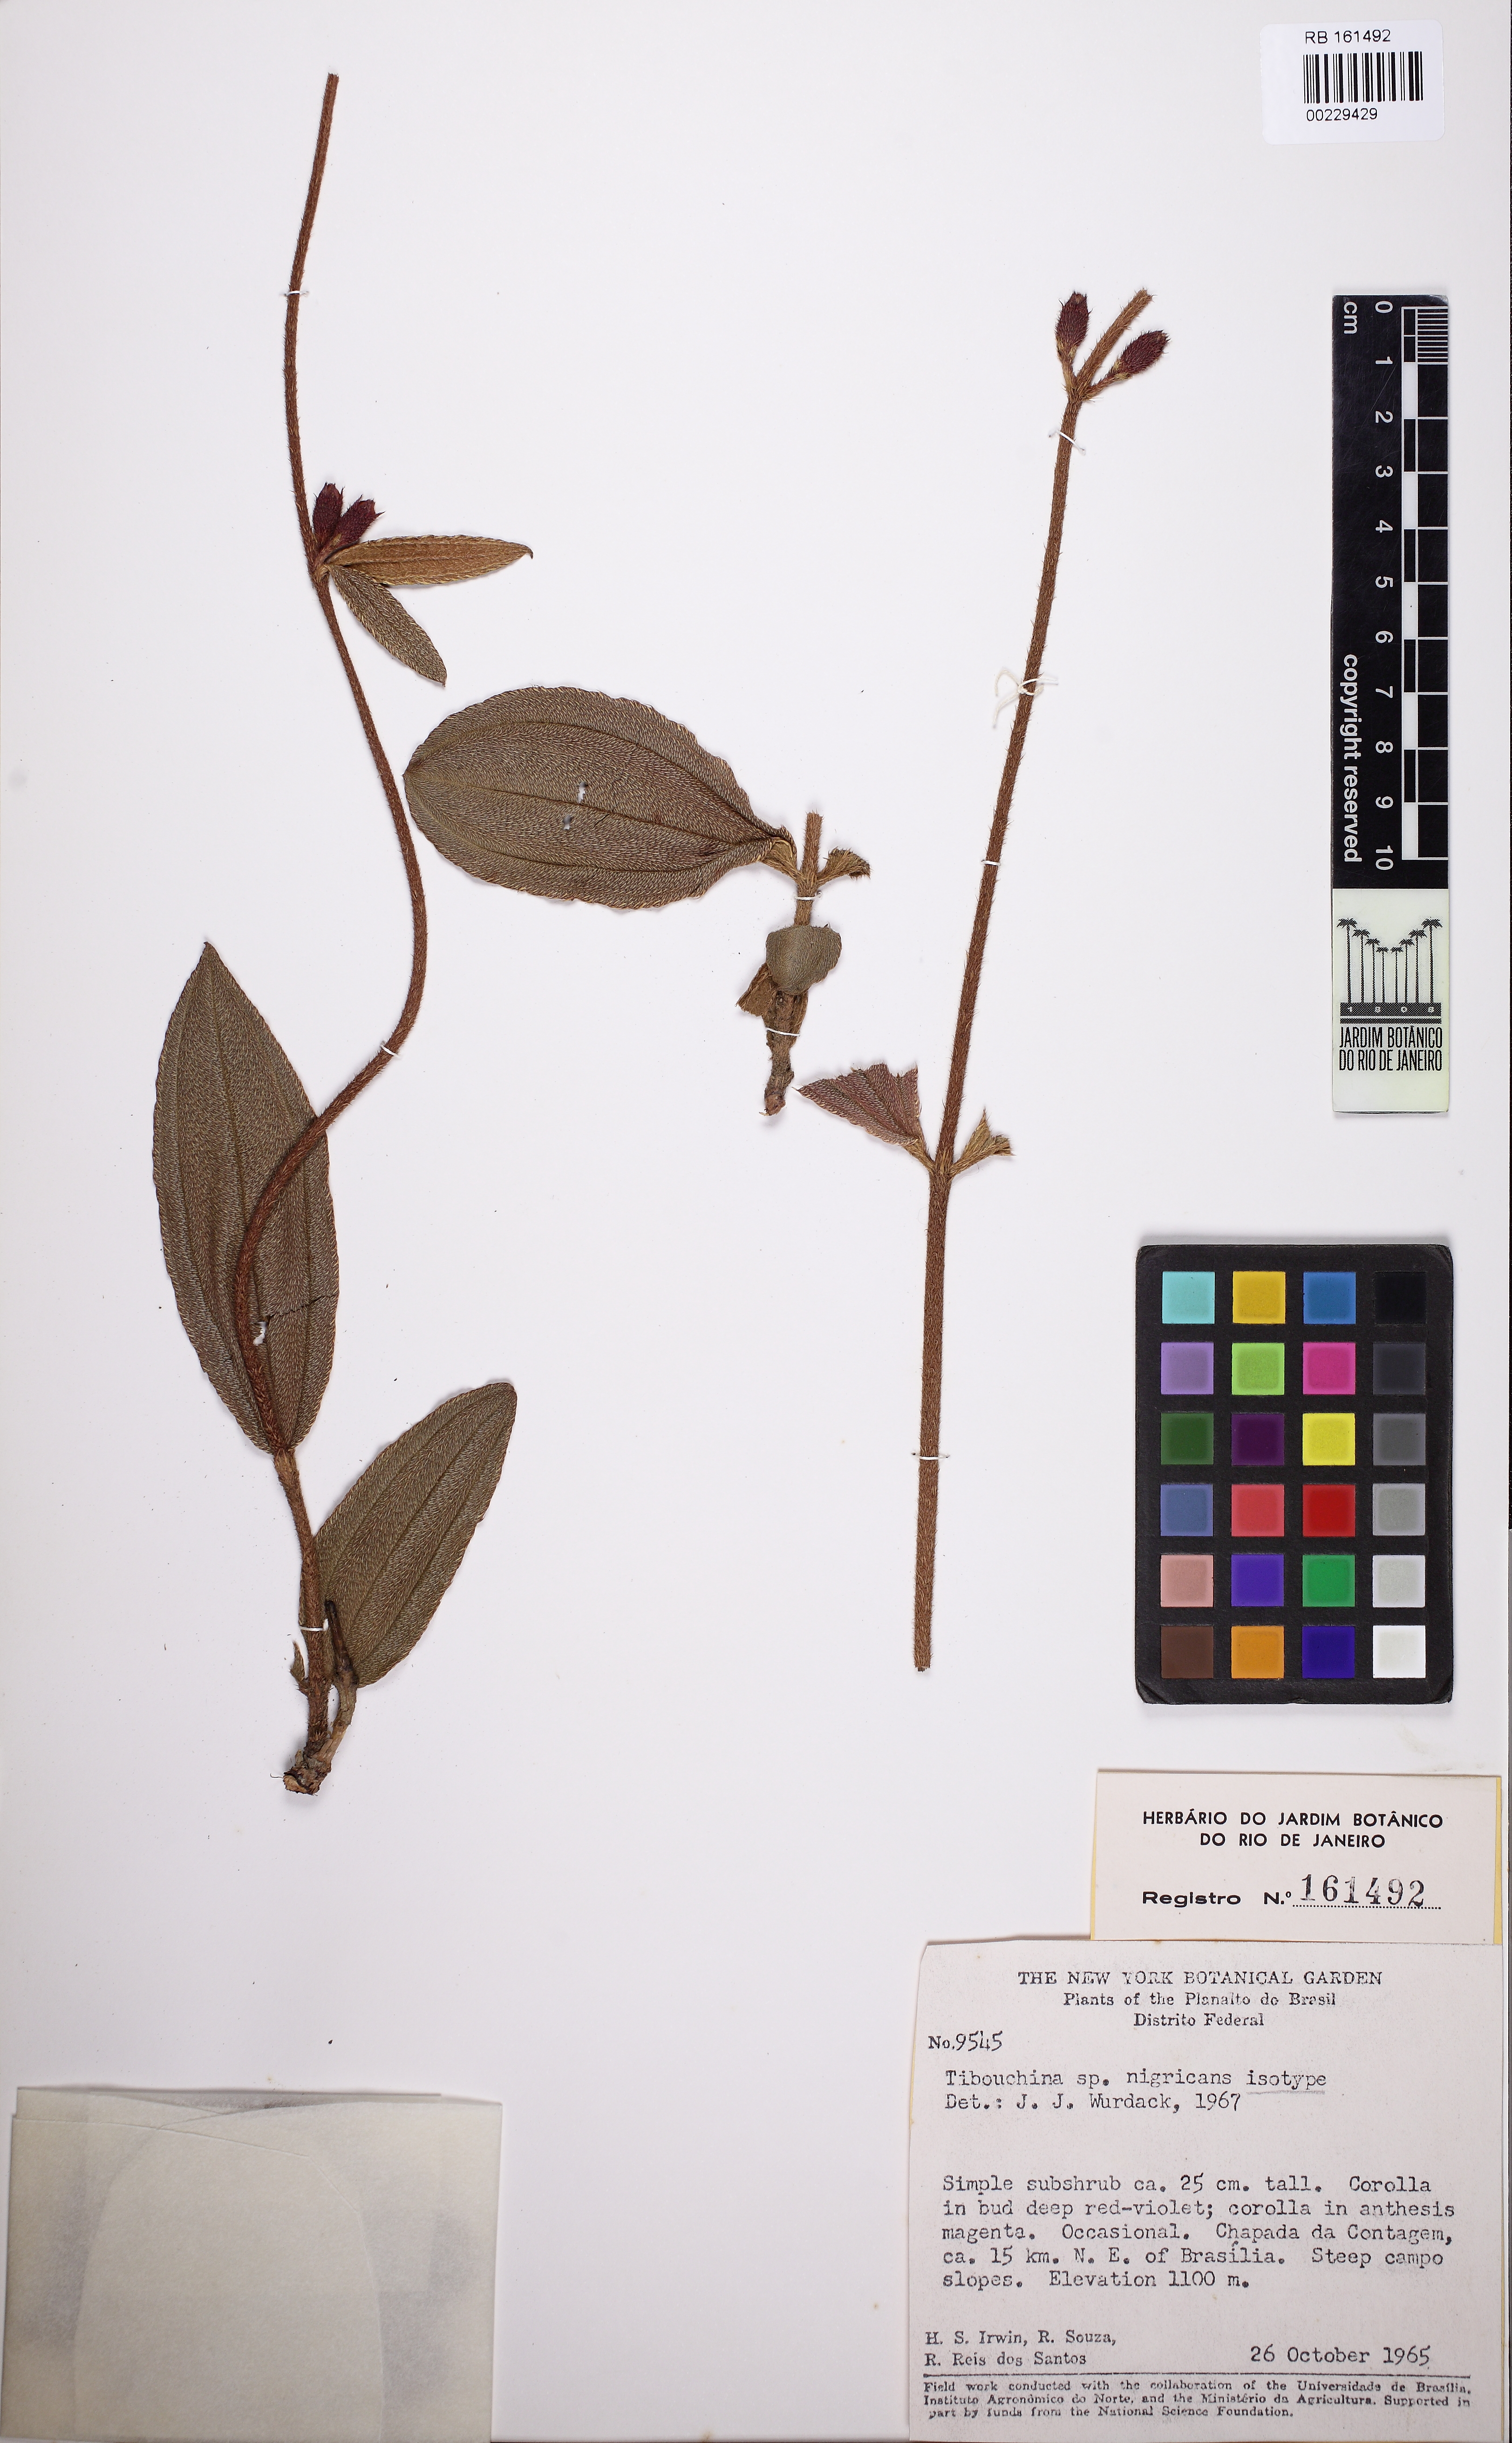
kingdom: Plantae
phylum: Tracheophyta
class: Magnoliopsida
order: Myrtales
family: Melastomataceae
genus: Tibouchina
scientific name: Tibouchina nigricans
